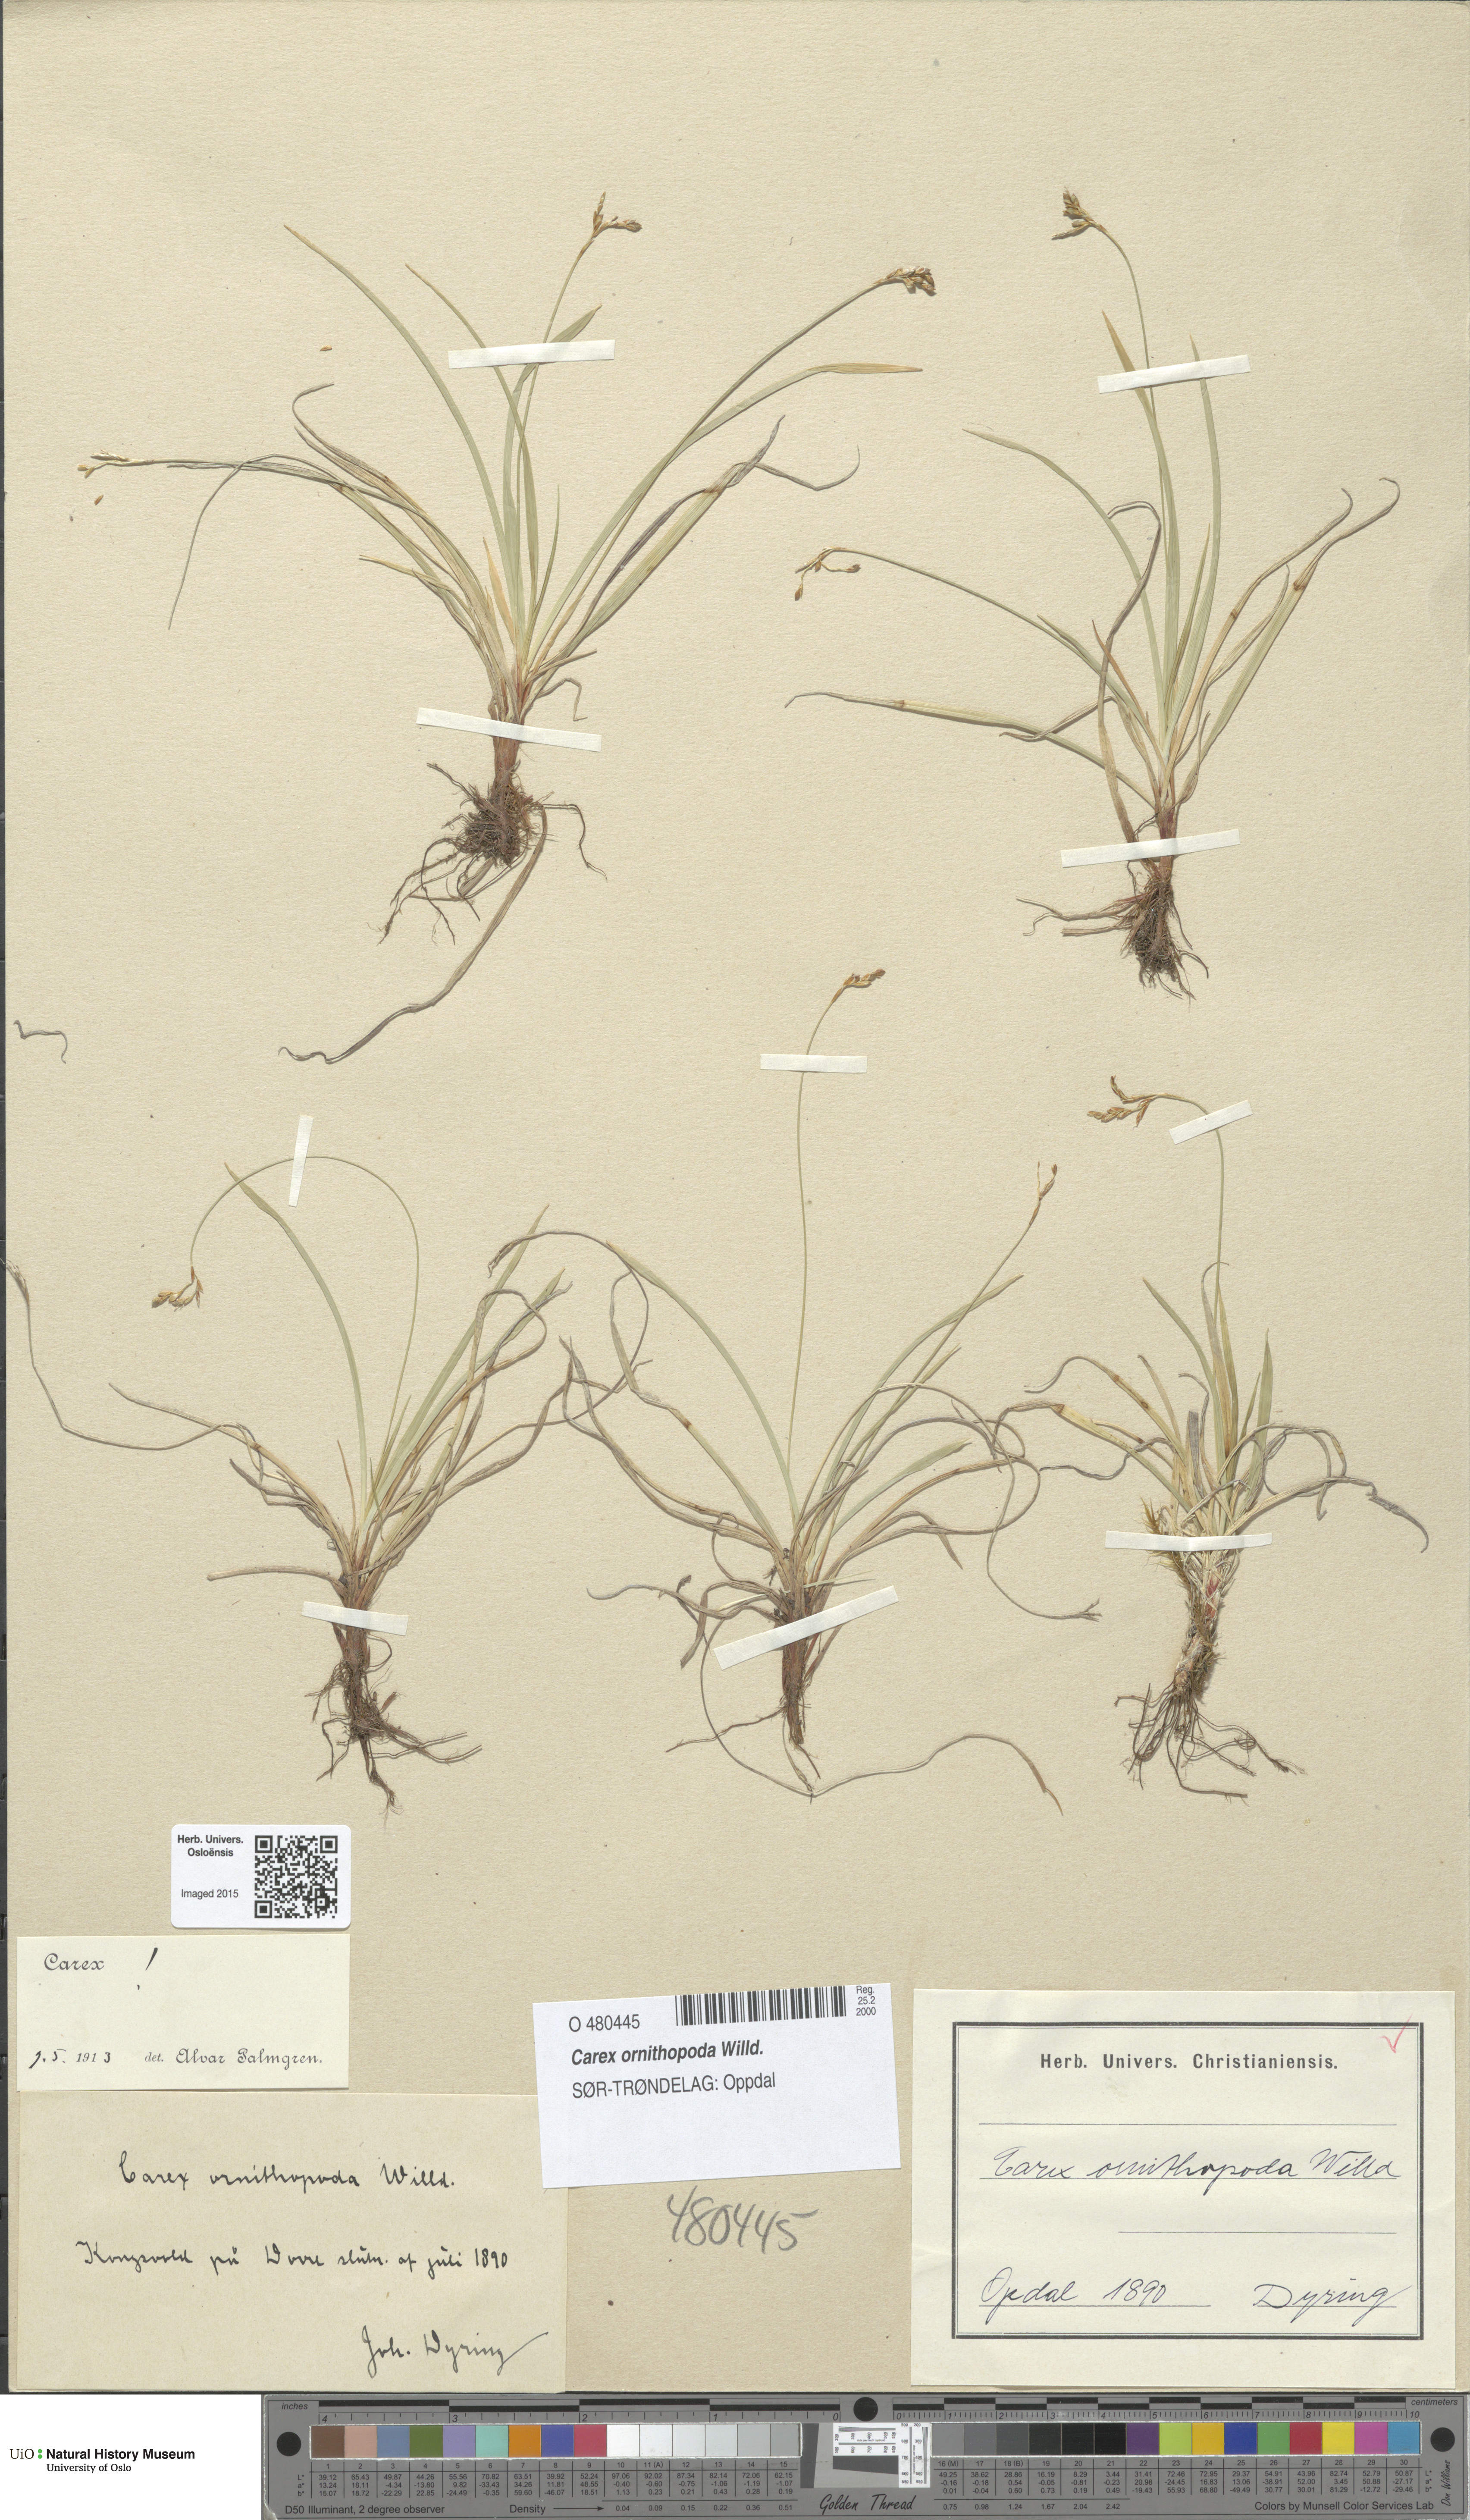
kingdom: Plantae
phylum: Tracheophyta
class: Liliopsida
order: Poales
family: Cyperaceae
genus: Carex
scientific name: Carex ornithopoda
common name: Bird's-foot sedge
